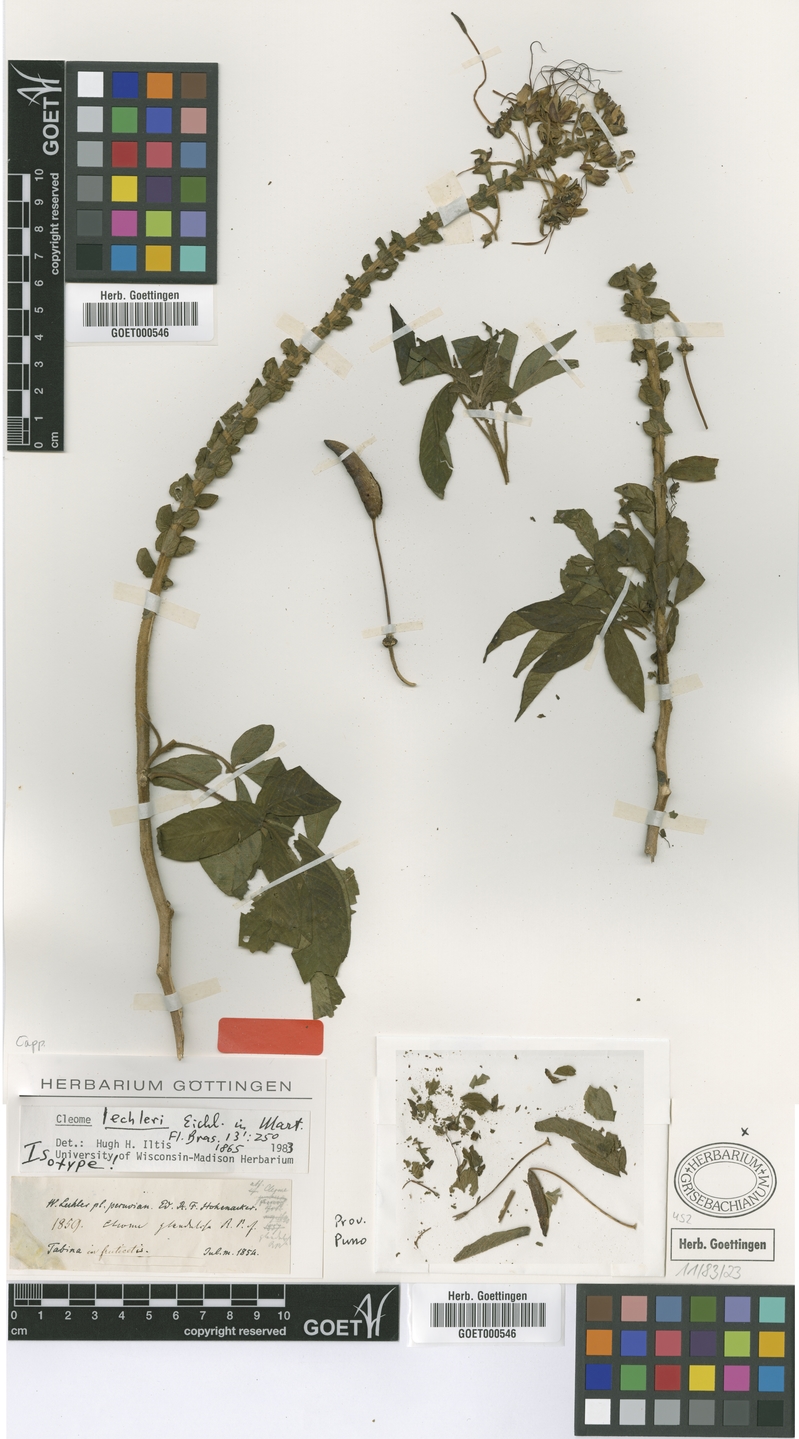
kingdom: Plantae
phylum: Tracheophyta
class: Magnoliopsida
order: Brassicales
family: Cleomaceae
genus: Andinocleome
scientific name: Andinocleome lechleri
